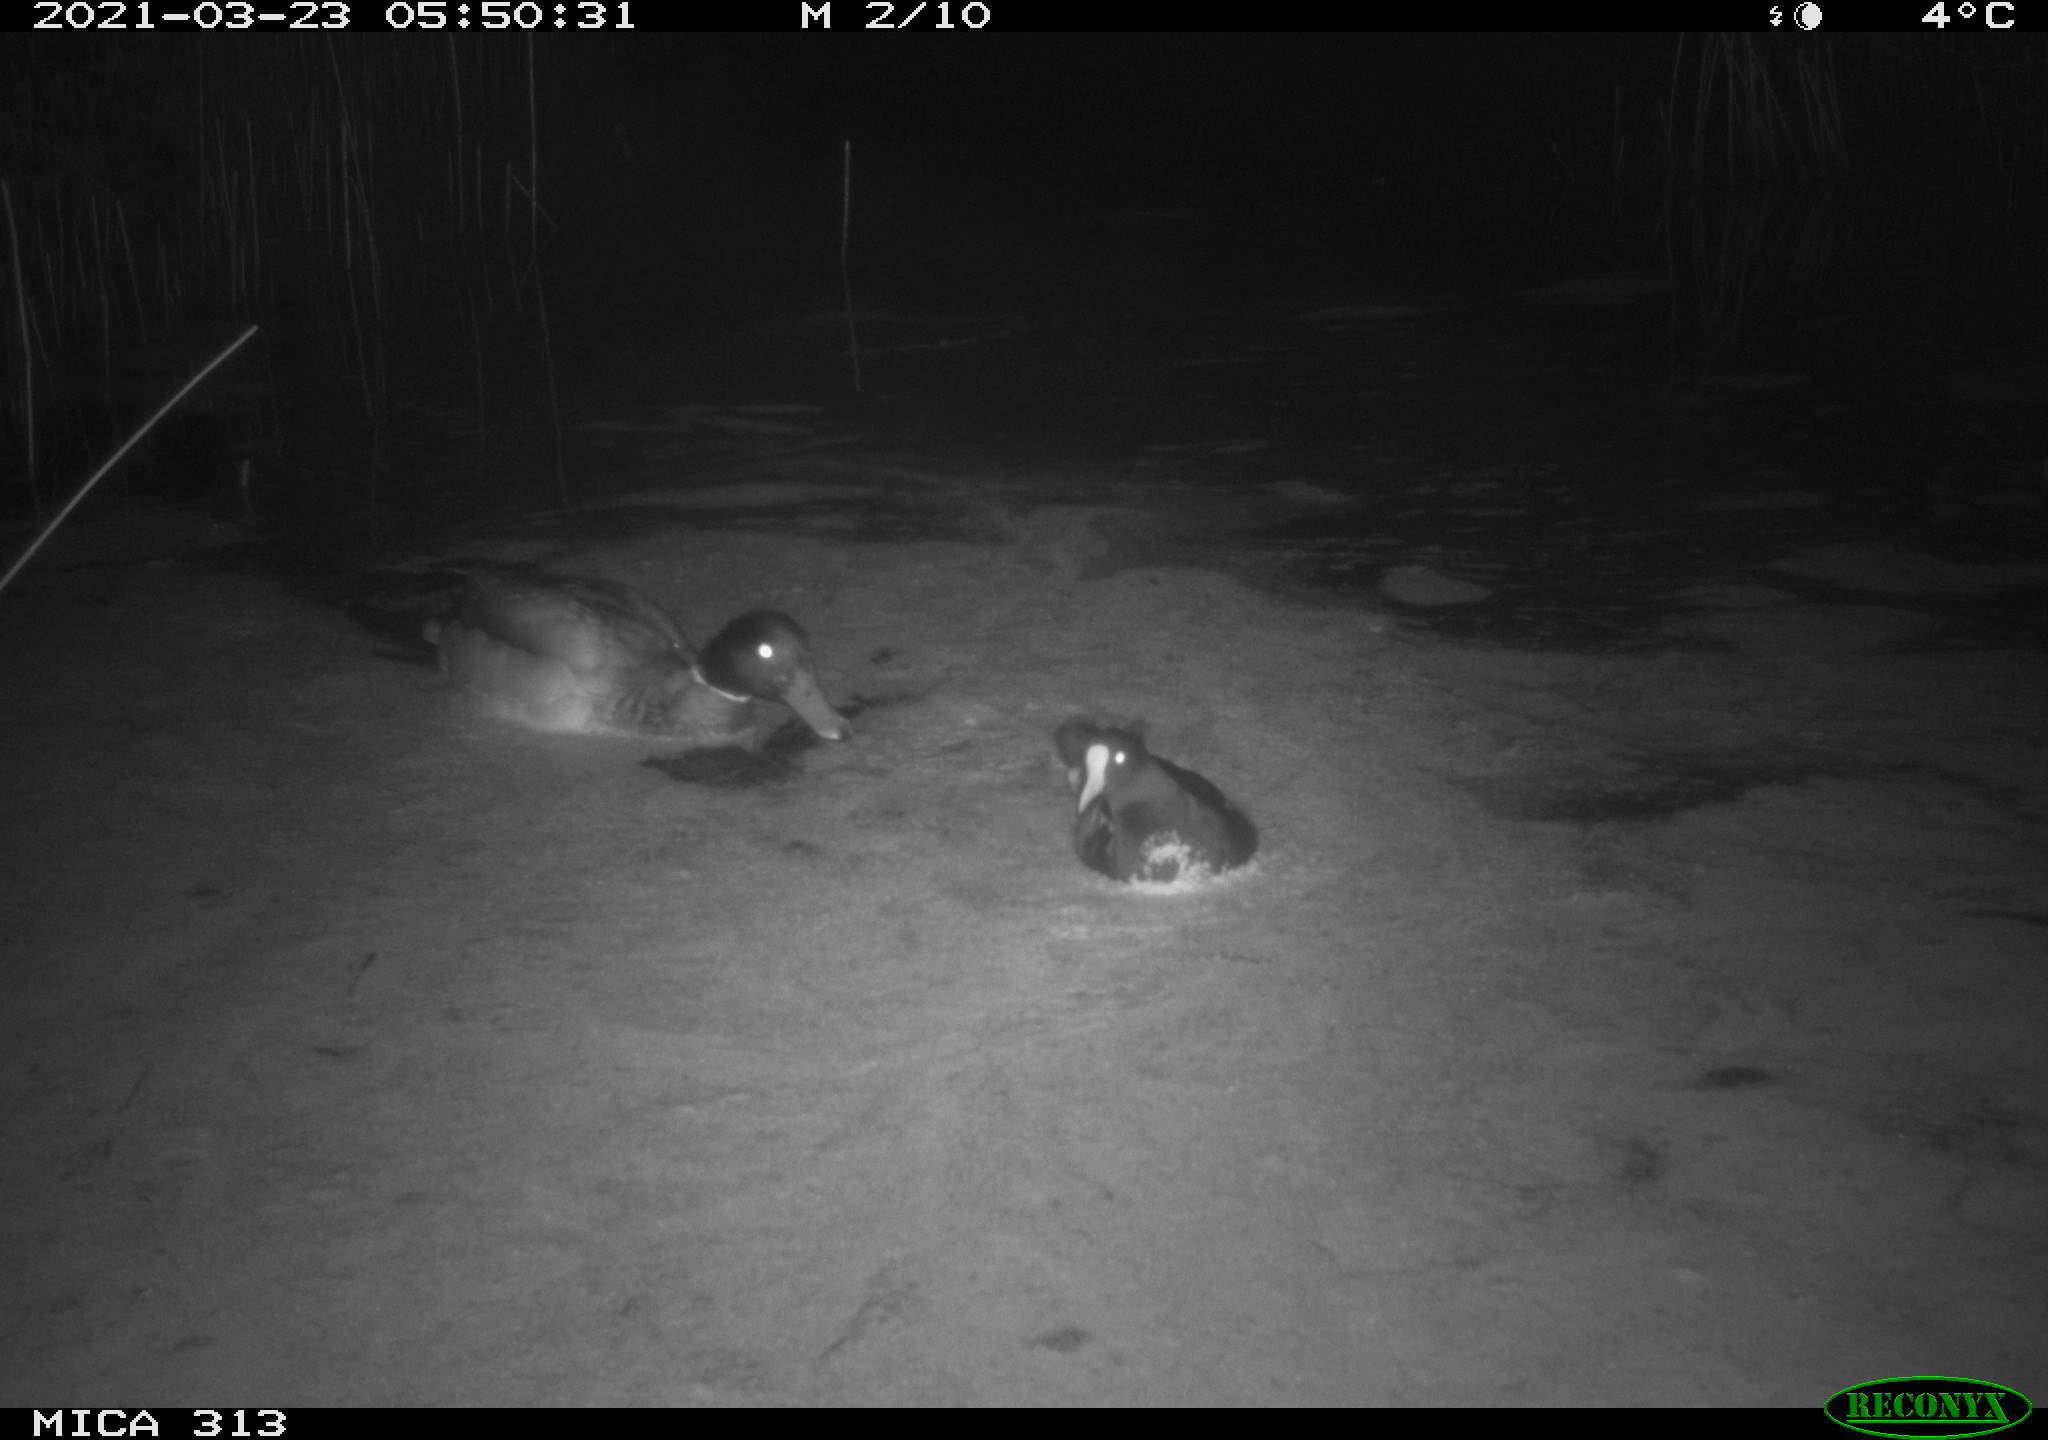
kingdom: Animalia
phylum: Chordata
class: Aves
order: Anseriformes
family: Anatidae
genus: Anas
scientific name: Anas platyrhynchos
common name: Mallard
